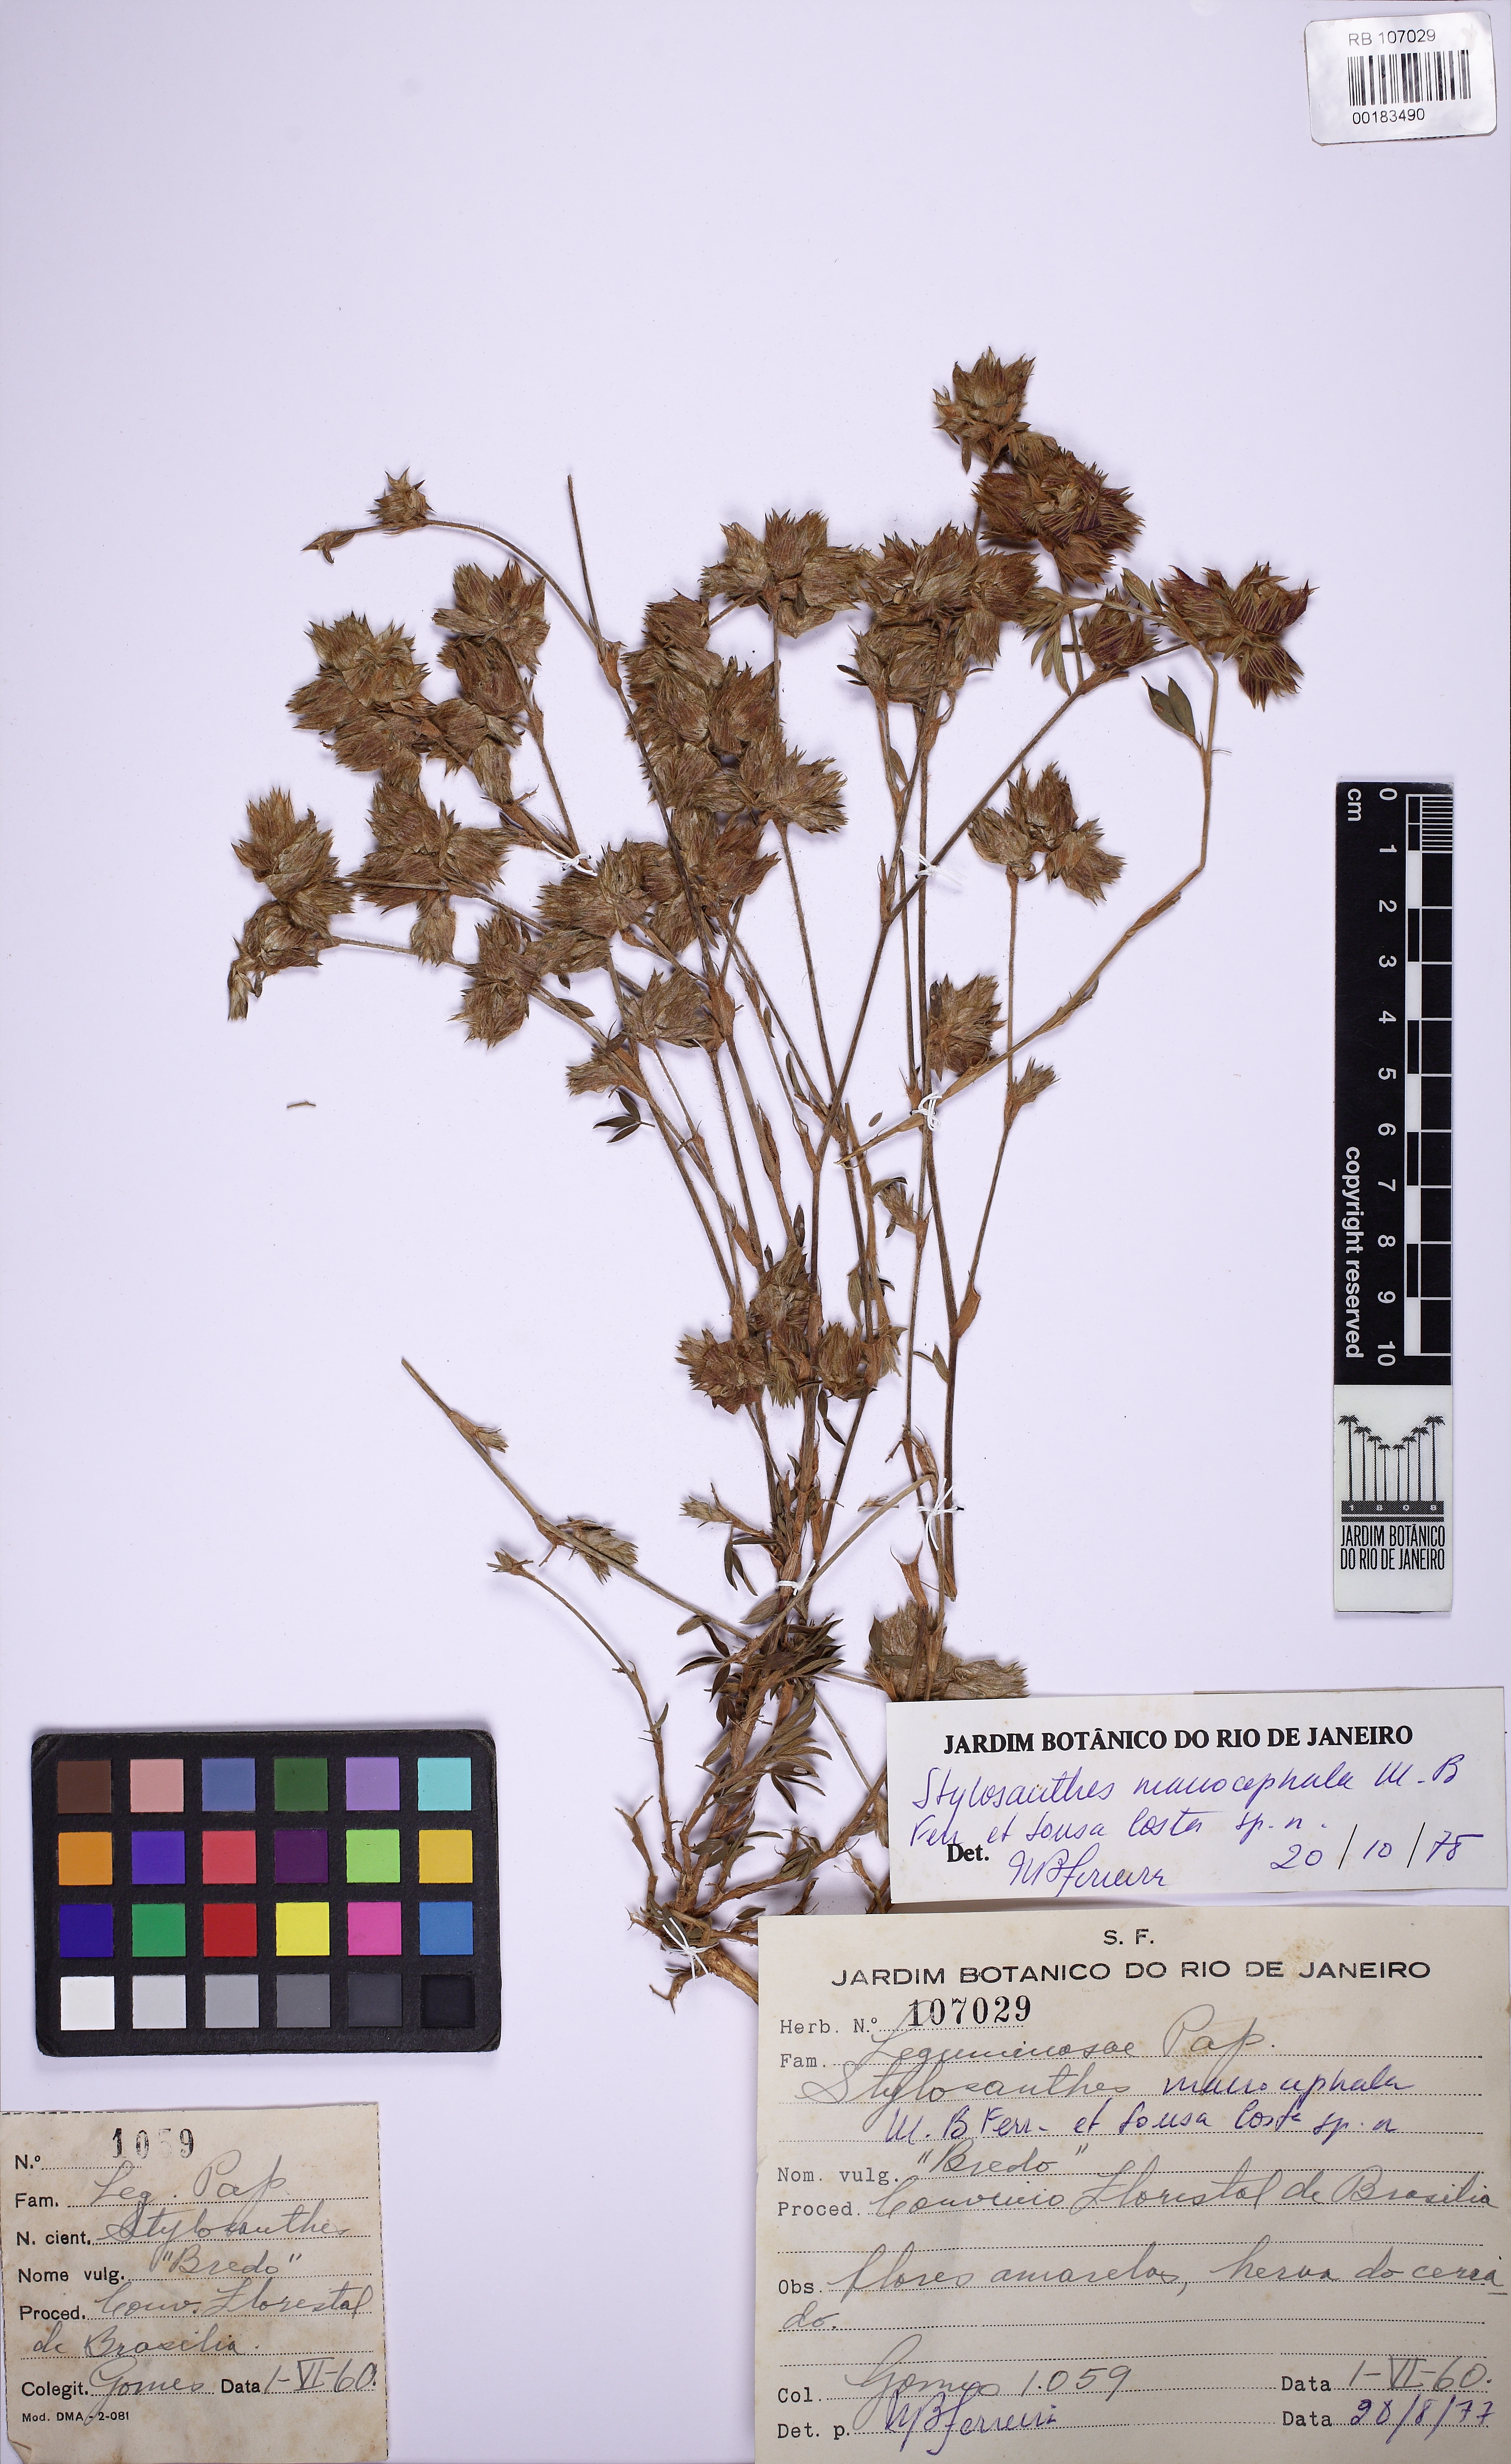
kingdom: Plantae
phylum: Tracheophyta
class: Magnoliopsida
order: Fabales
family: Fabaceae
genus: Stylosanthes
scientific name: Stylosanthes macrocephala
